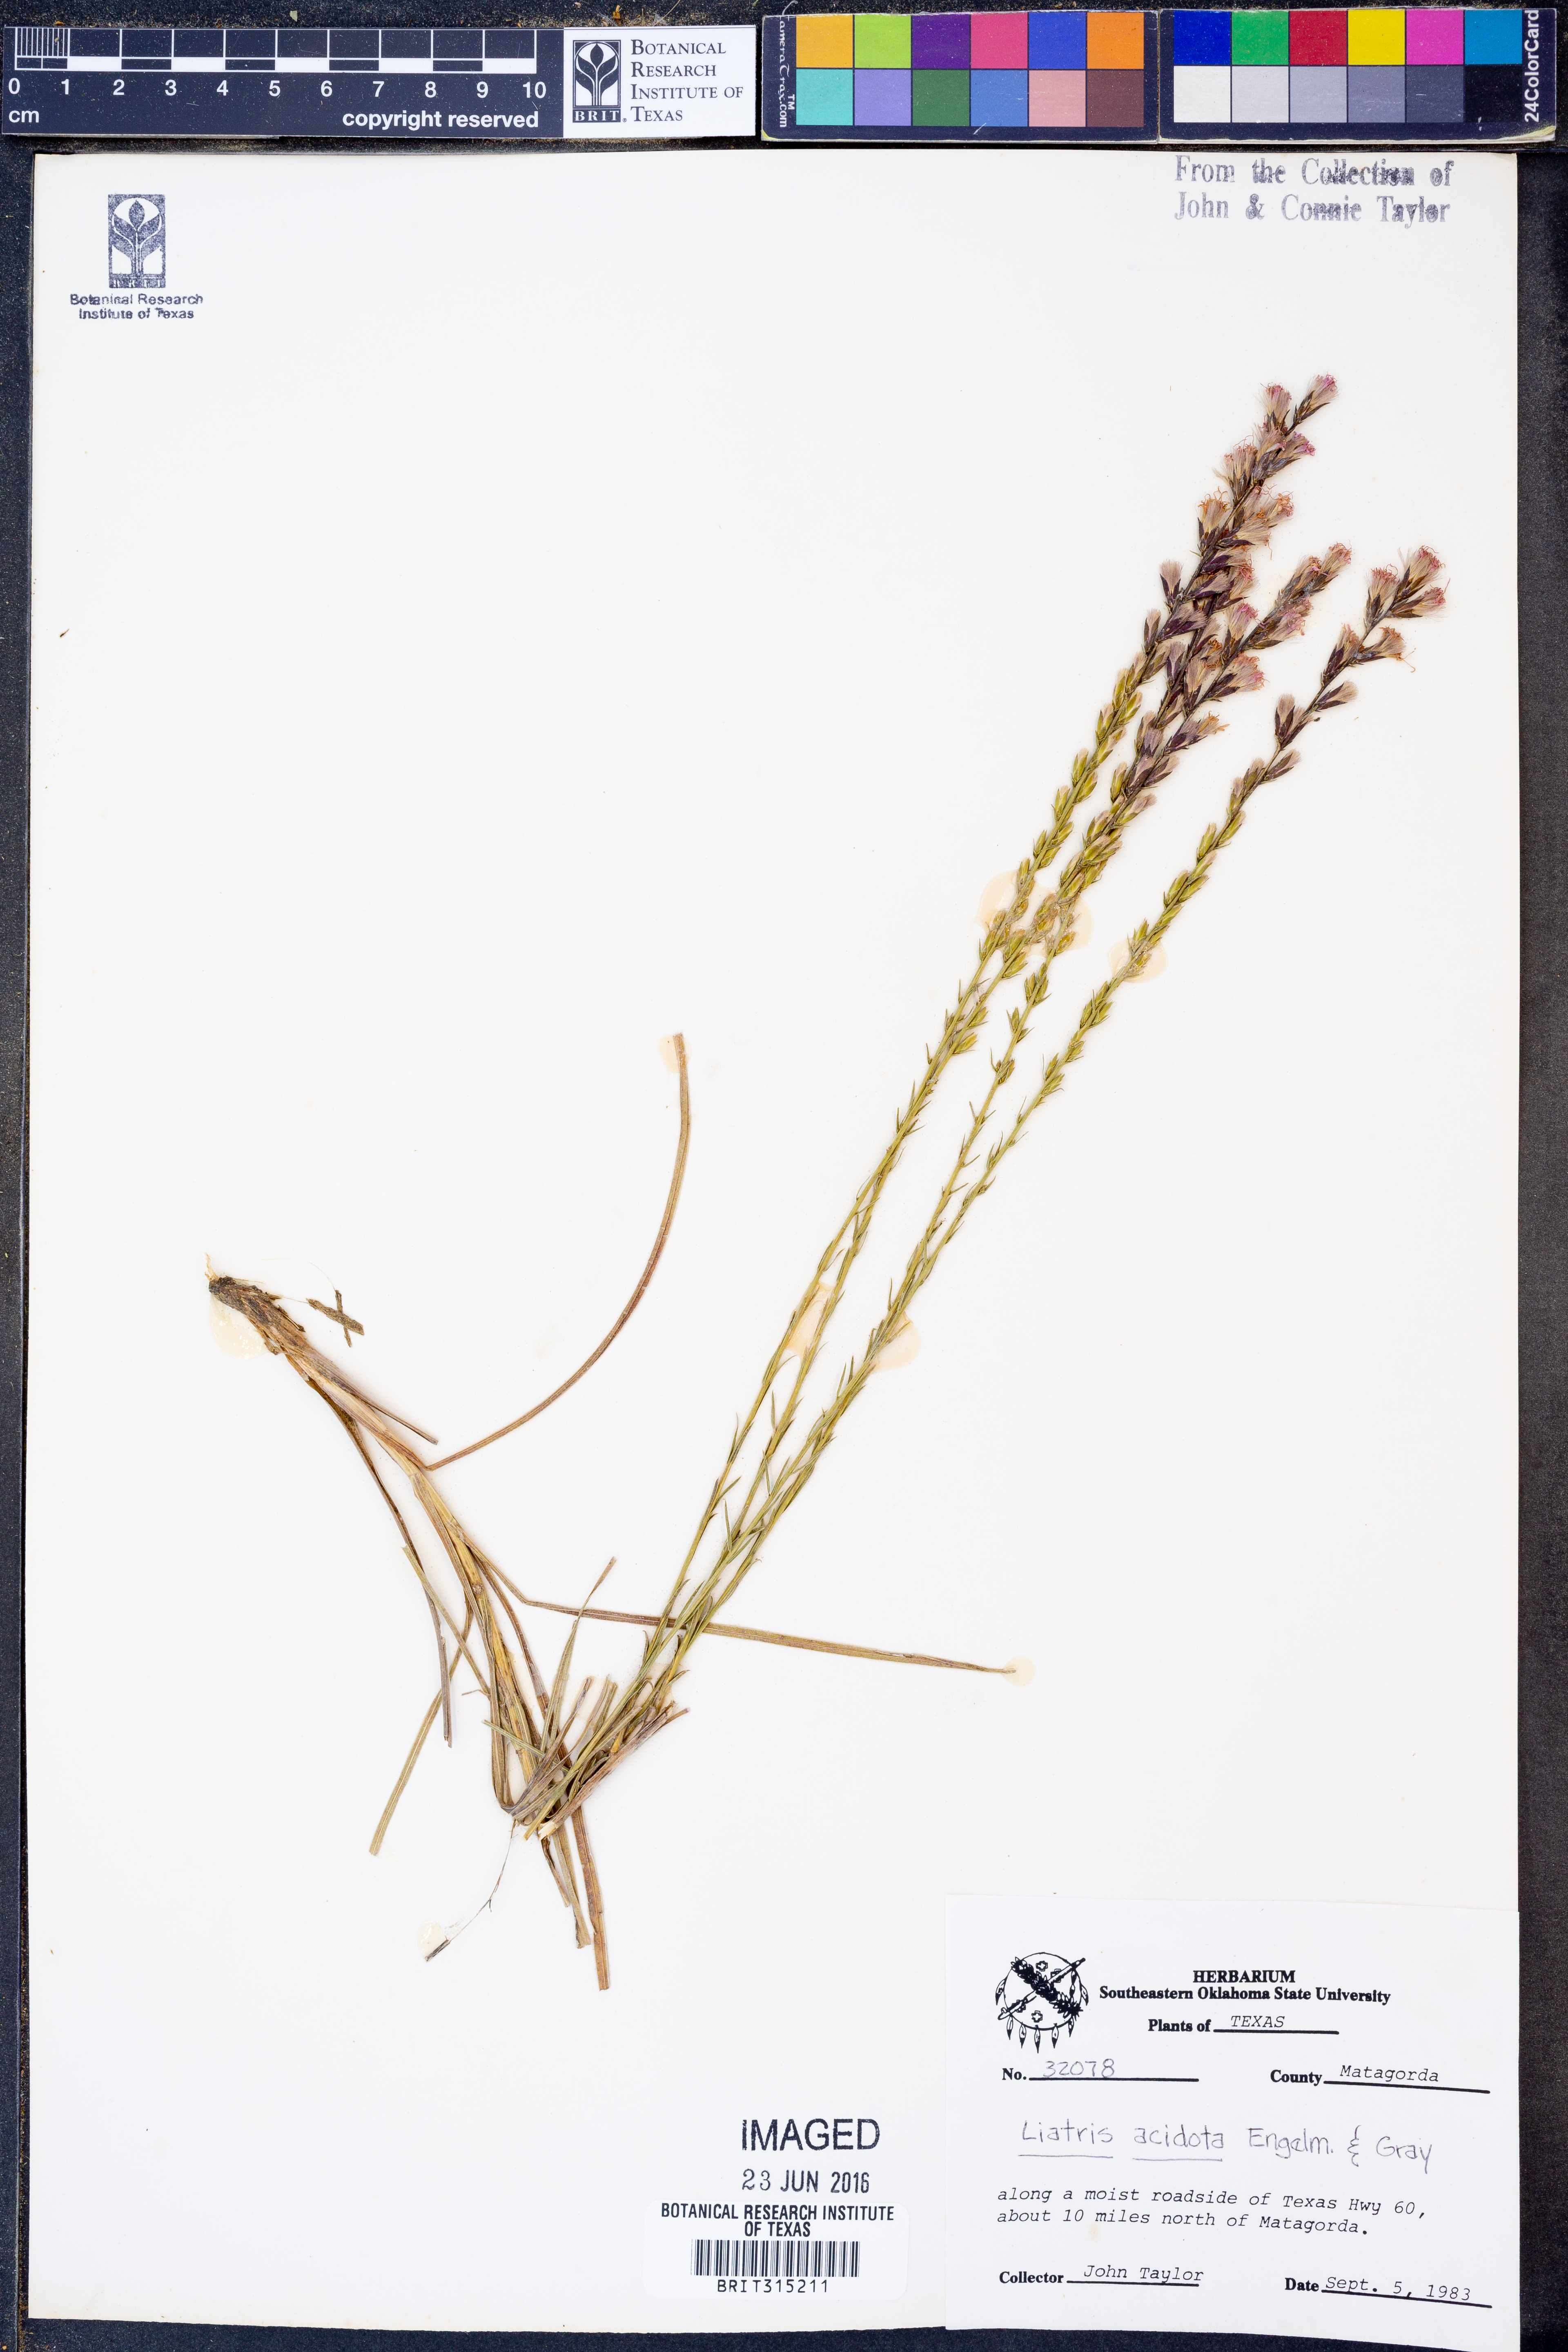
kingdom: Plantae
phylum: Tracheophyta
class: Magnoliopsida
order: Asterales
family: Asteraceae
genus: Liatris
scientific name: Liatris acidota
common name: Gulf coast gayfeather
